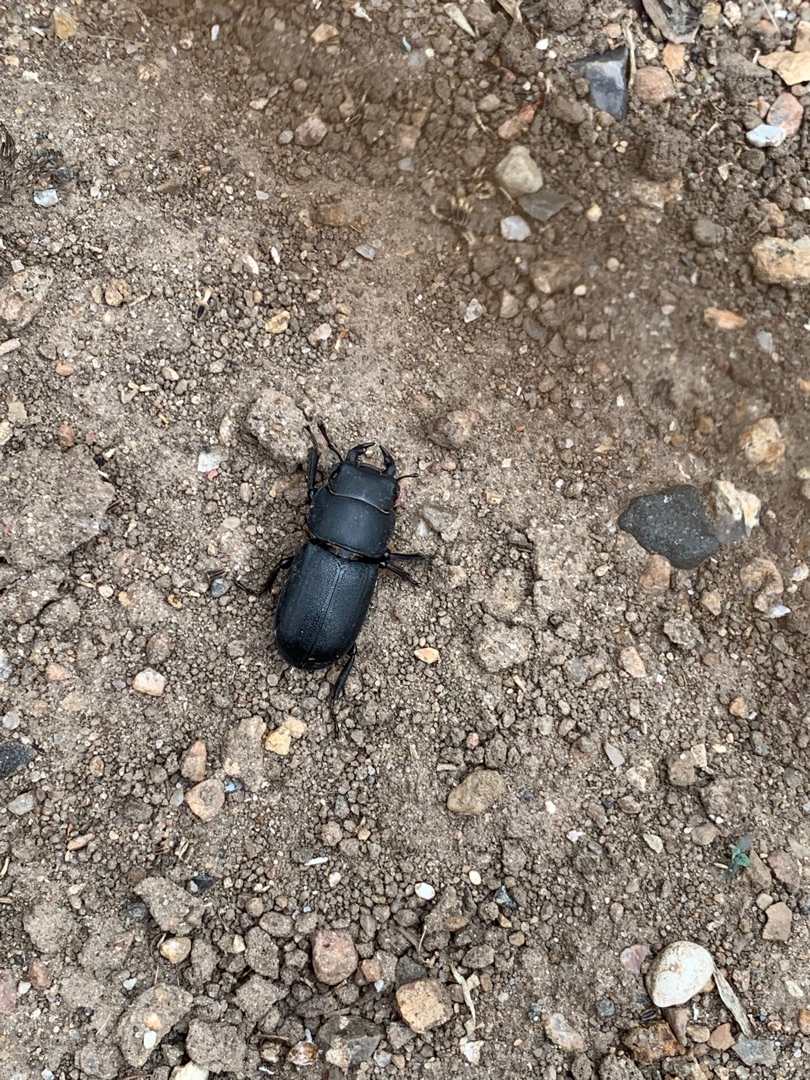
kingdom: Animalia
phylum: Arthropoda
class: Insecta
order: Coleoptera
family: Lucanidae
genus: Dorcus
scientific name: Dorcus parallelipipedus
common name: Bøghjort
